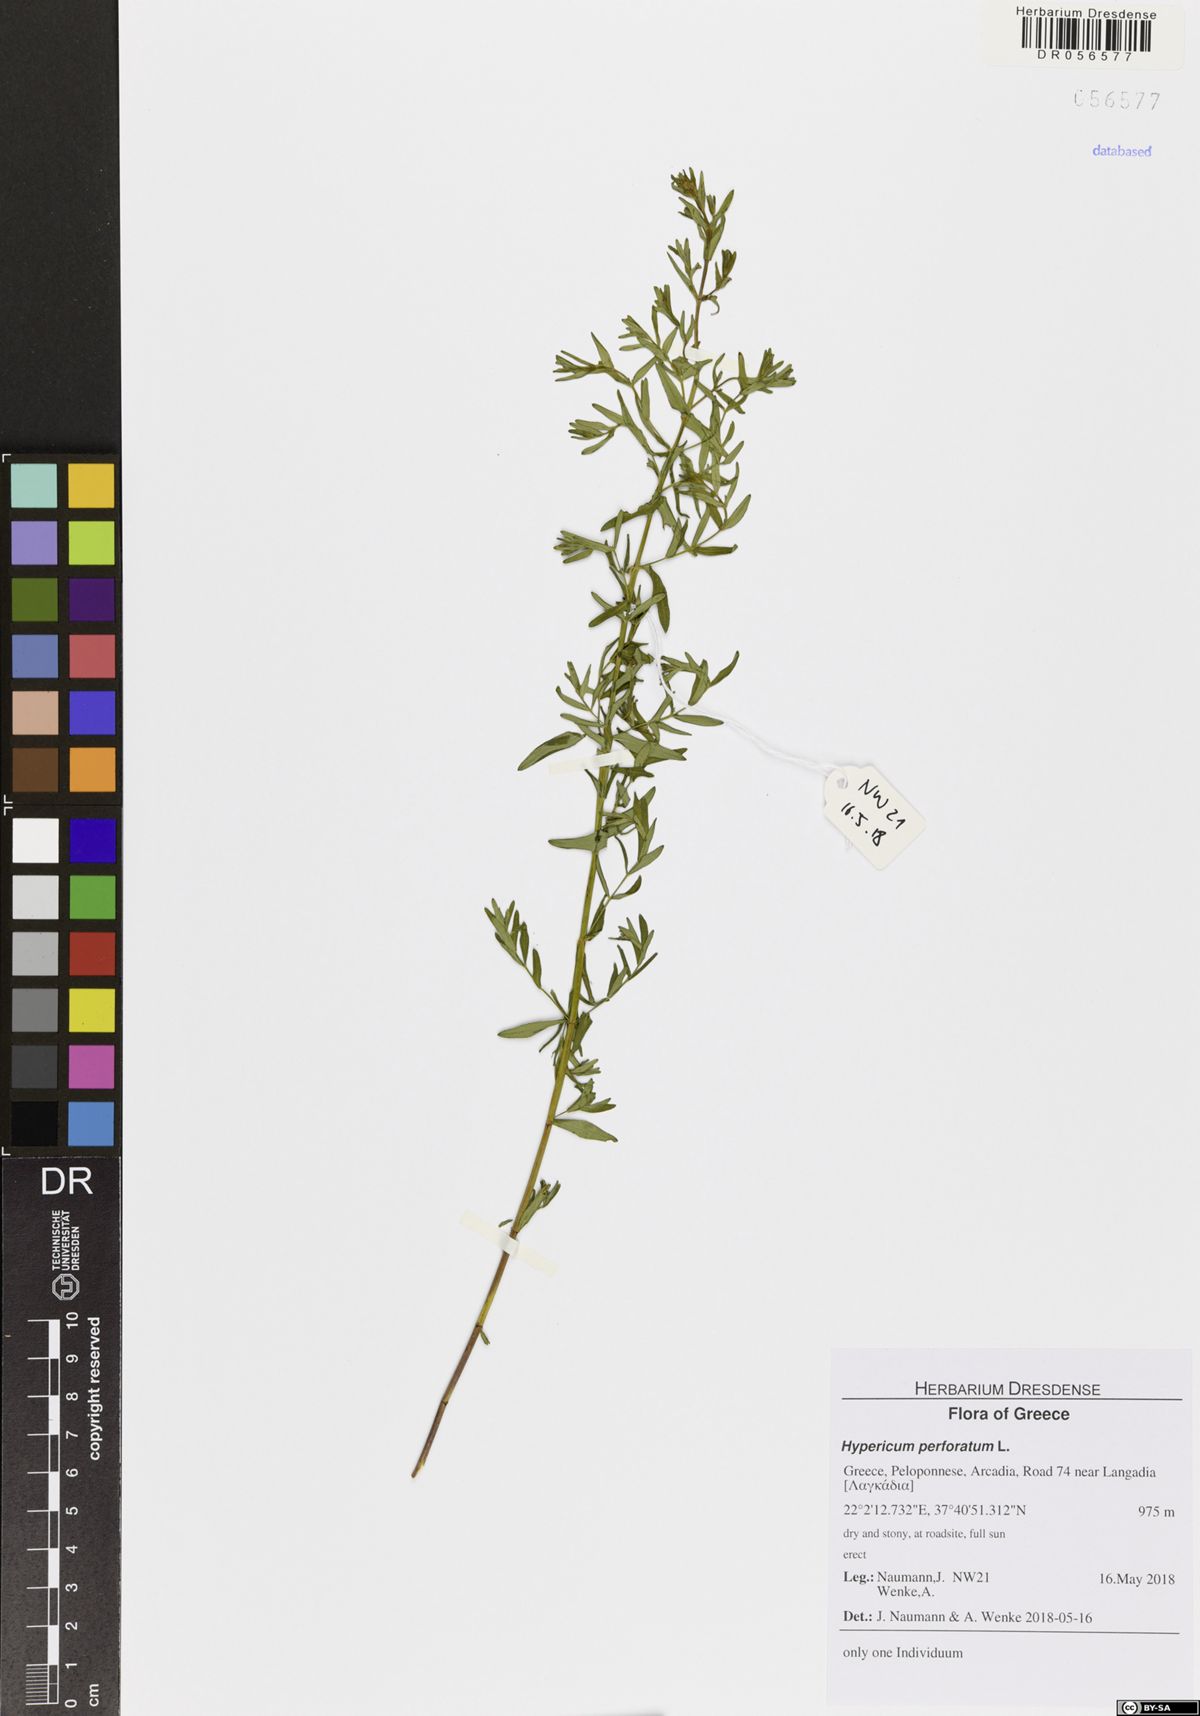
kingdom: Plantae
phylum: Tracheophyta
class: Magnoliopsida
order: Malpighiales
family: Hypericaceae
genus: Hypericum
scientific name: Hypericum perforatum
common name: Common st. johnswort
